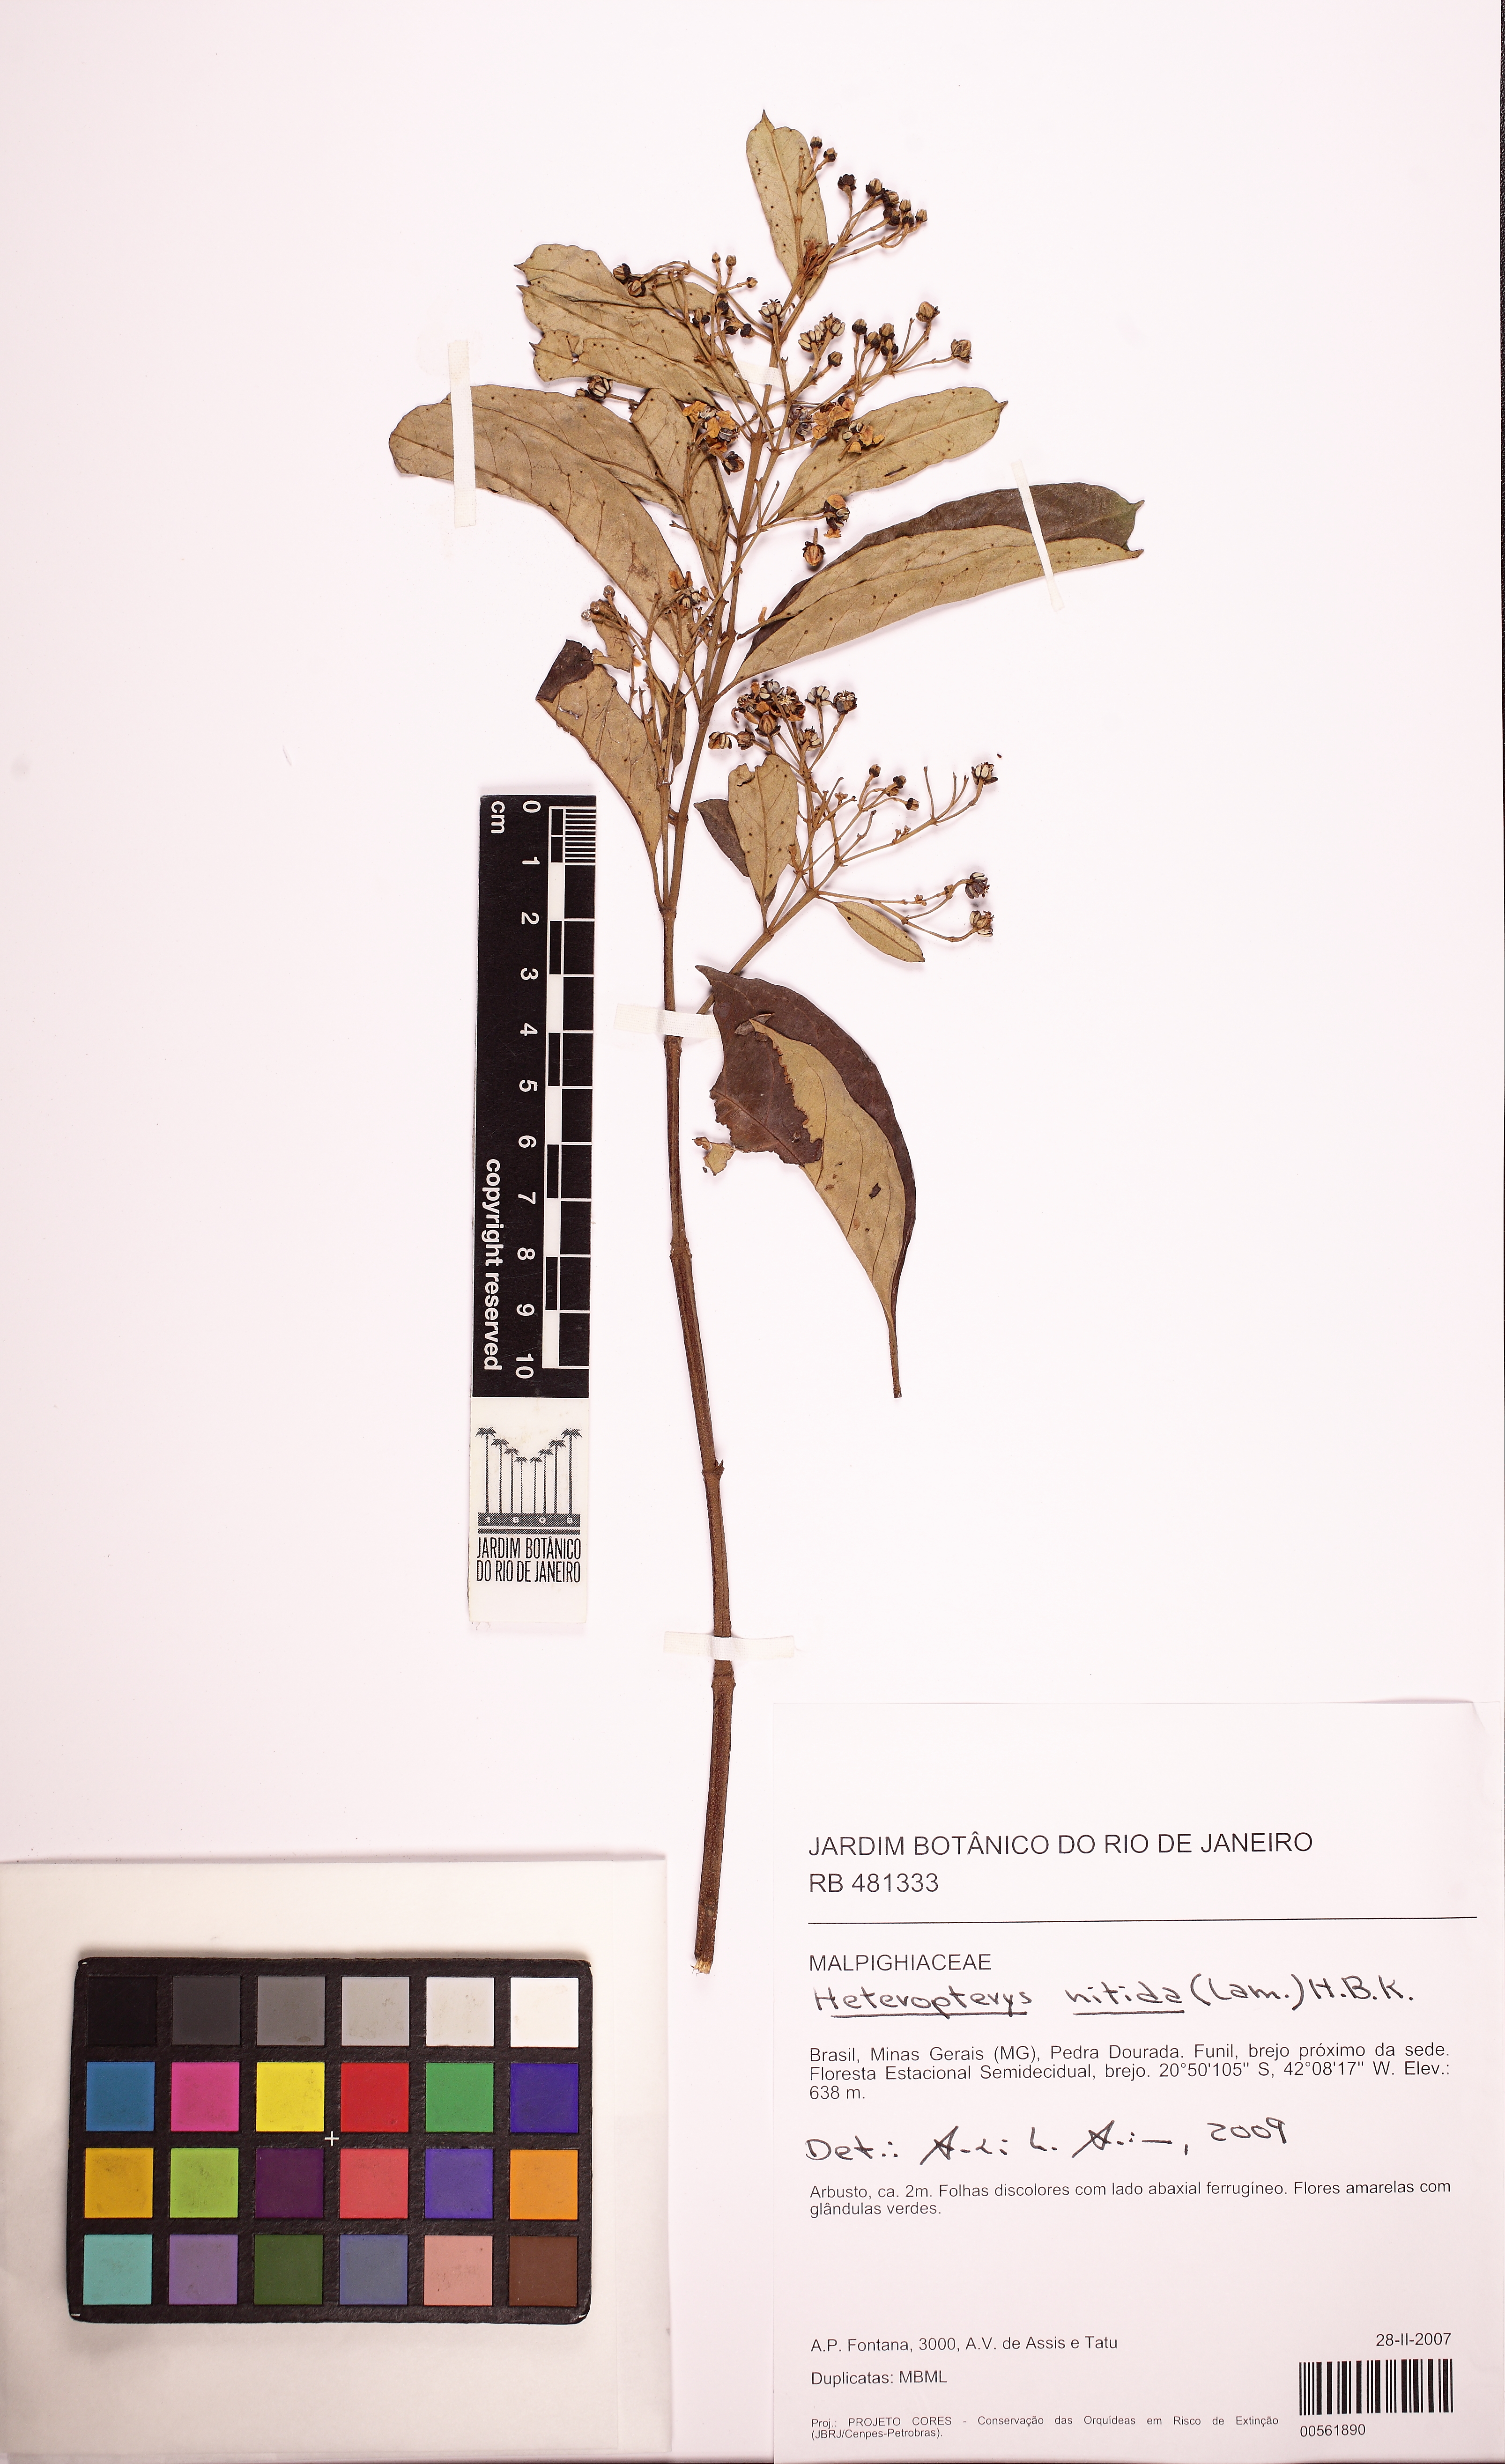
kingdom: Plantae
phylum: Tracheophyta
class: Magnoliopsida
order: Malpighiales
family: Malpighiaceae
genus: Heteropterys
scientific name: Heteropterys nitida
